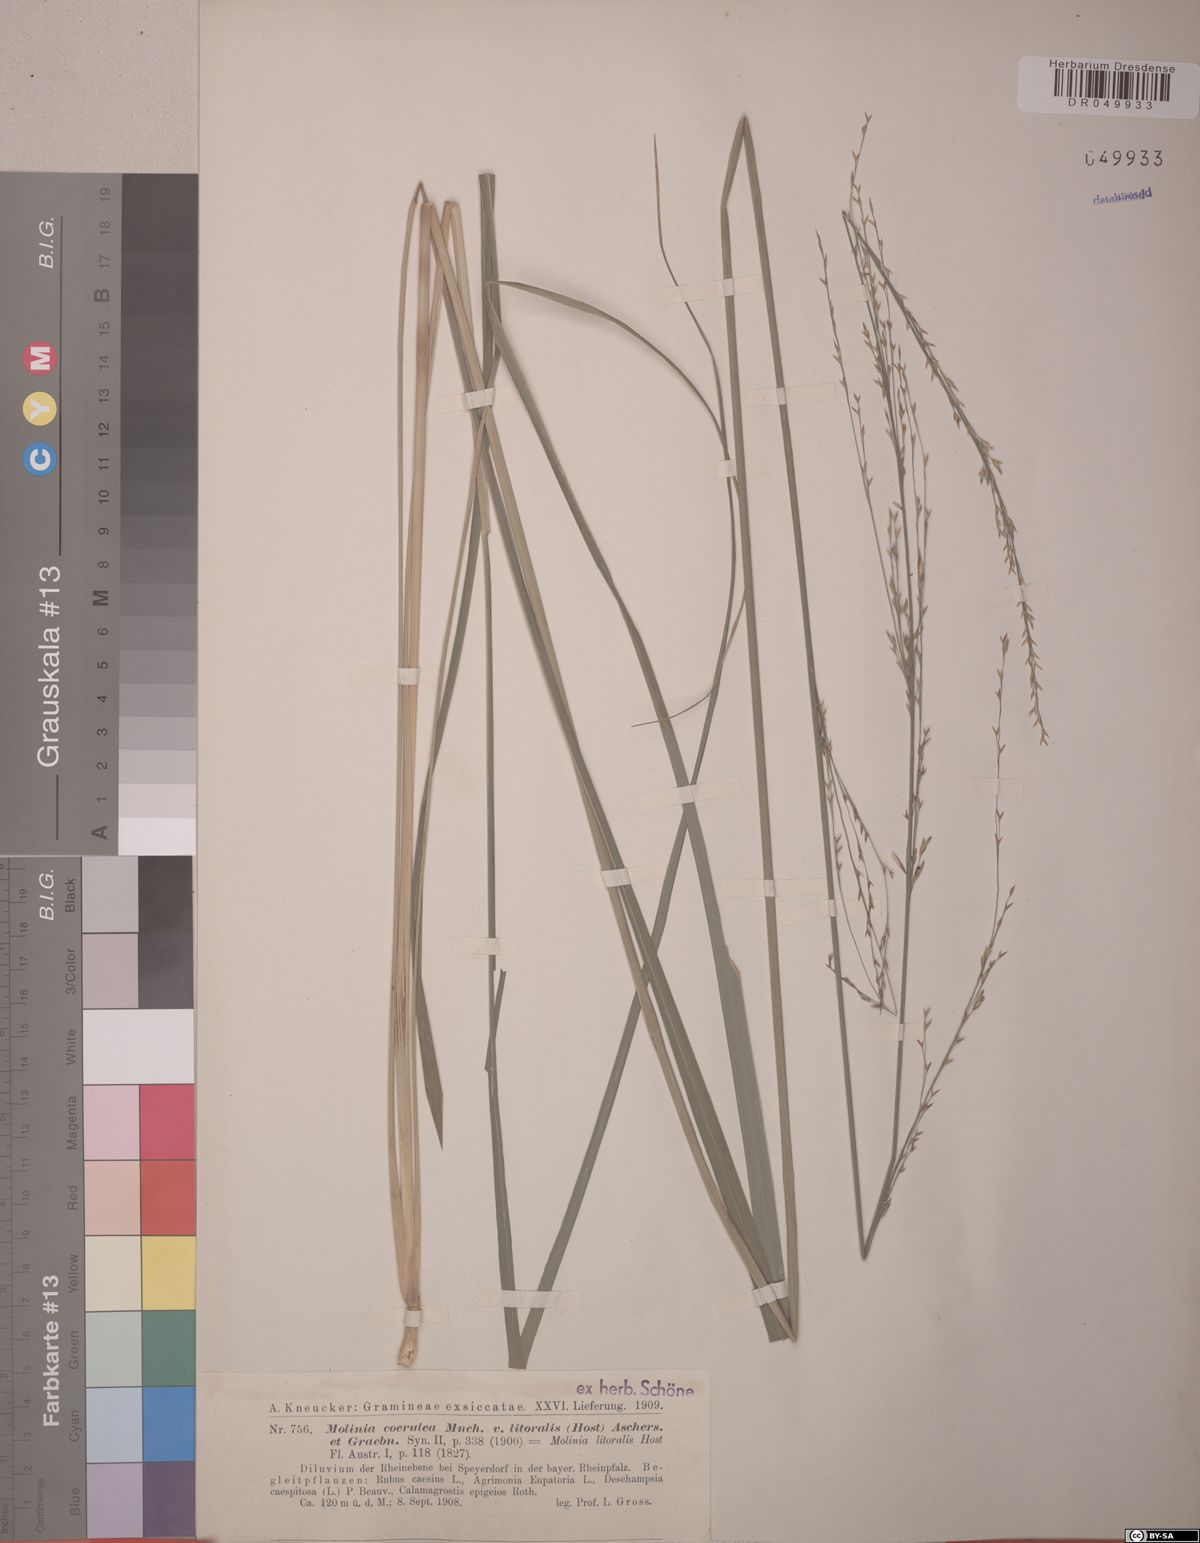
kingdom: Plantae
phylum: Tracheophyta
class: Liliopsida
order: Poales
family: Poaceae
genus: Molinia
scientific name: Molinia caerulea
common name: Purple moor-grass
